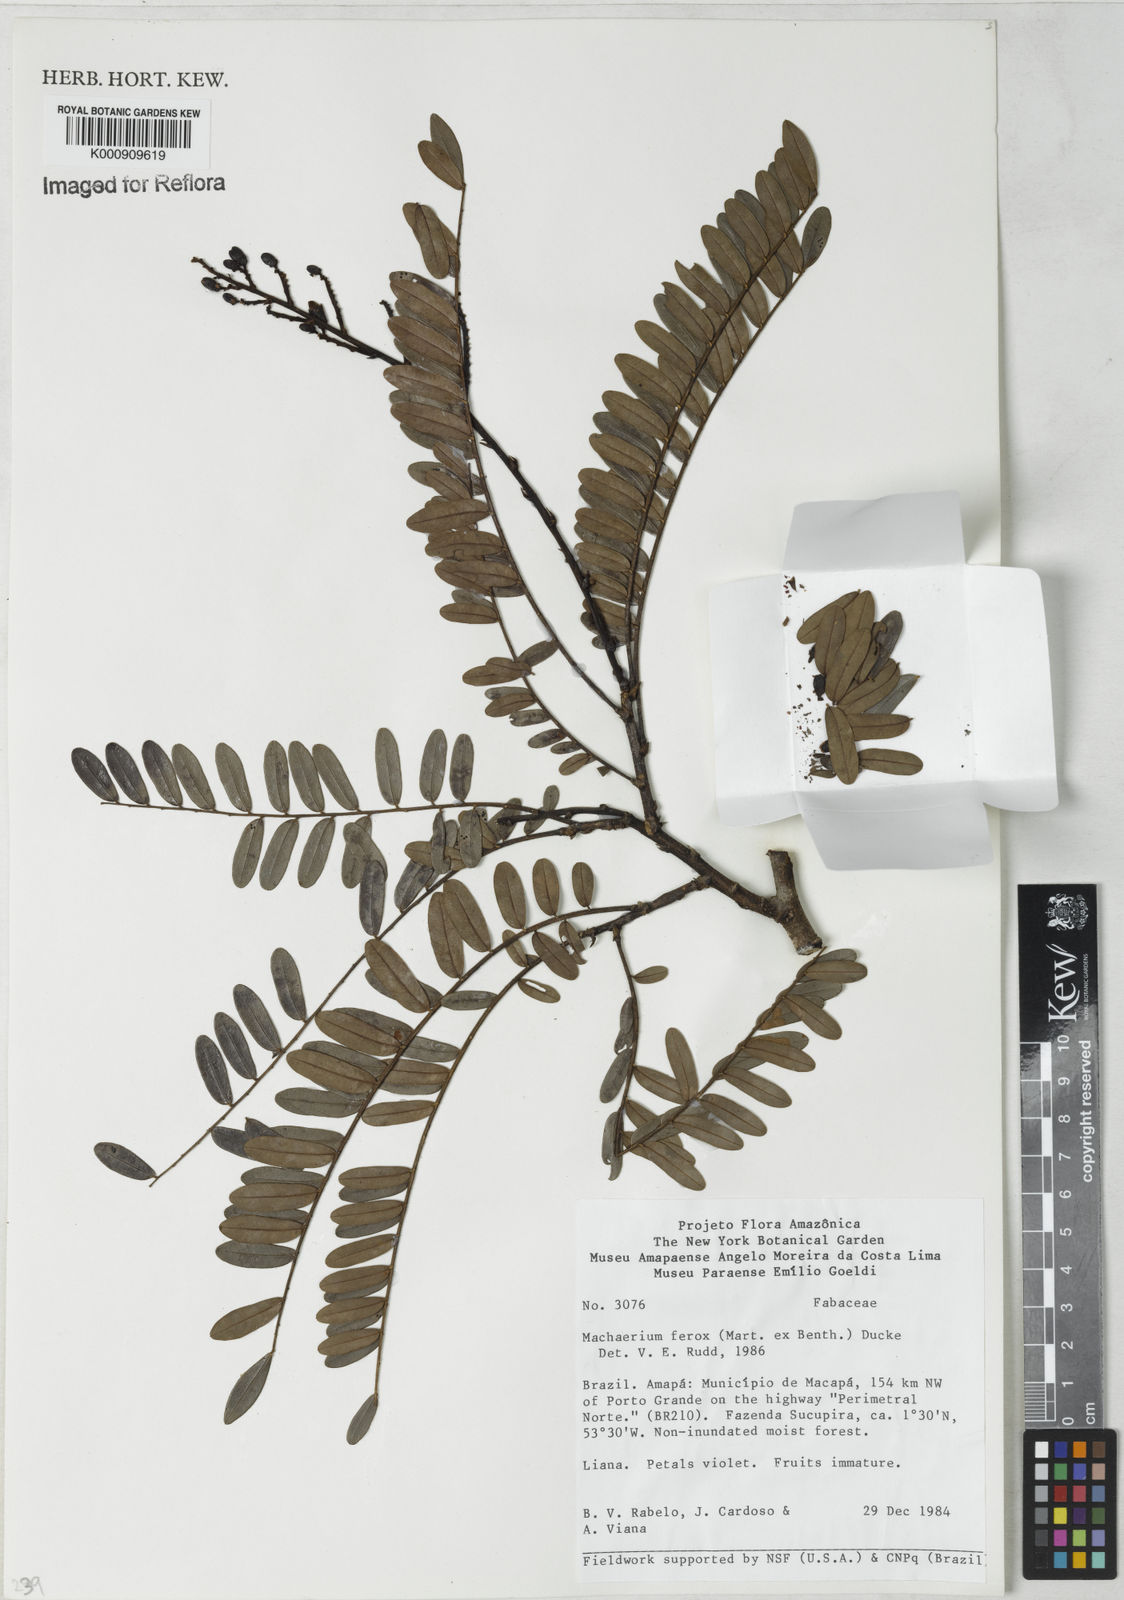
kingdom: Plantae
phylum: Tracheophyta
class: Magnoliopsida
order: Fabales
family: Fabaceae
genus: Machaerium
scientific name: Machaerium ferox
